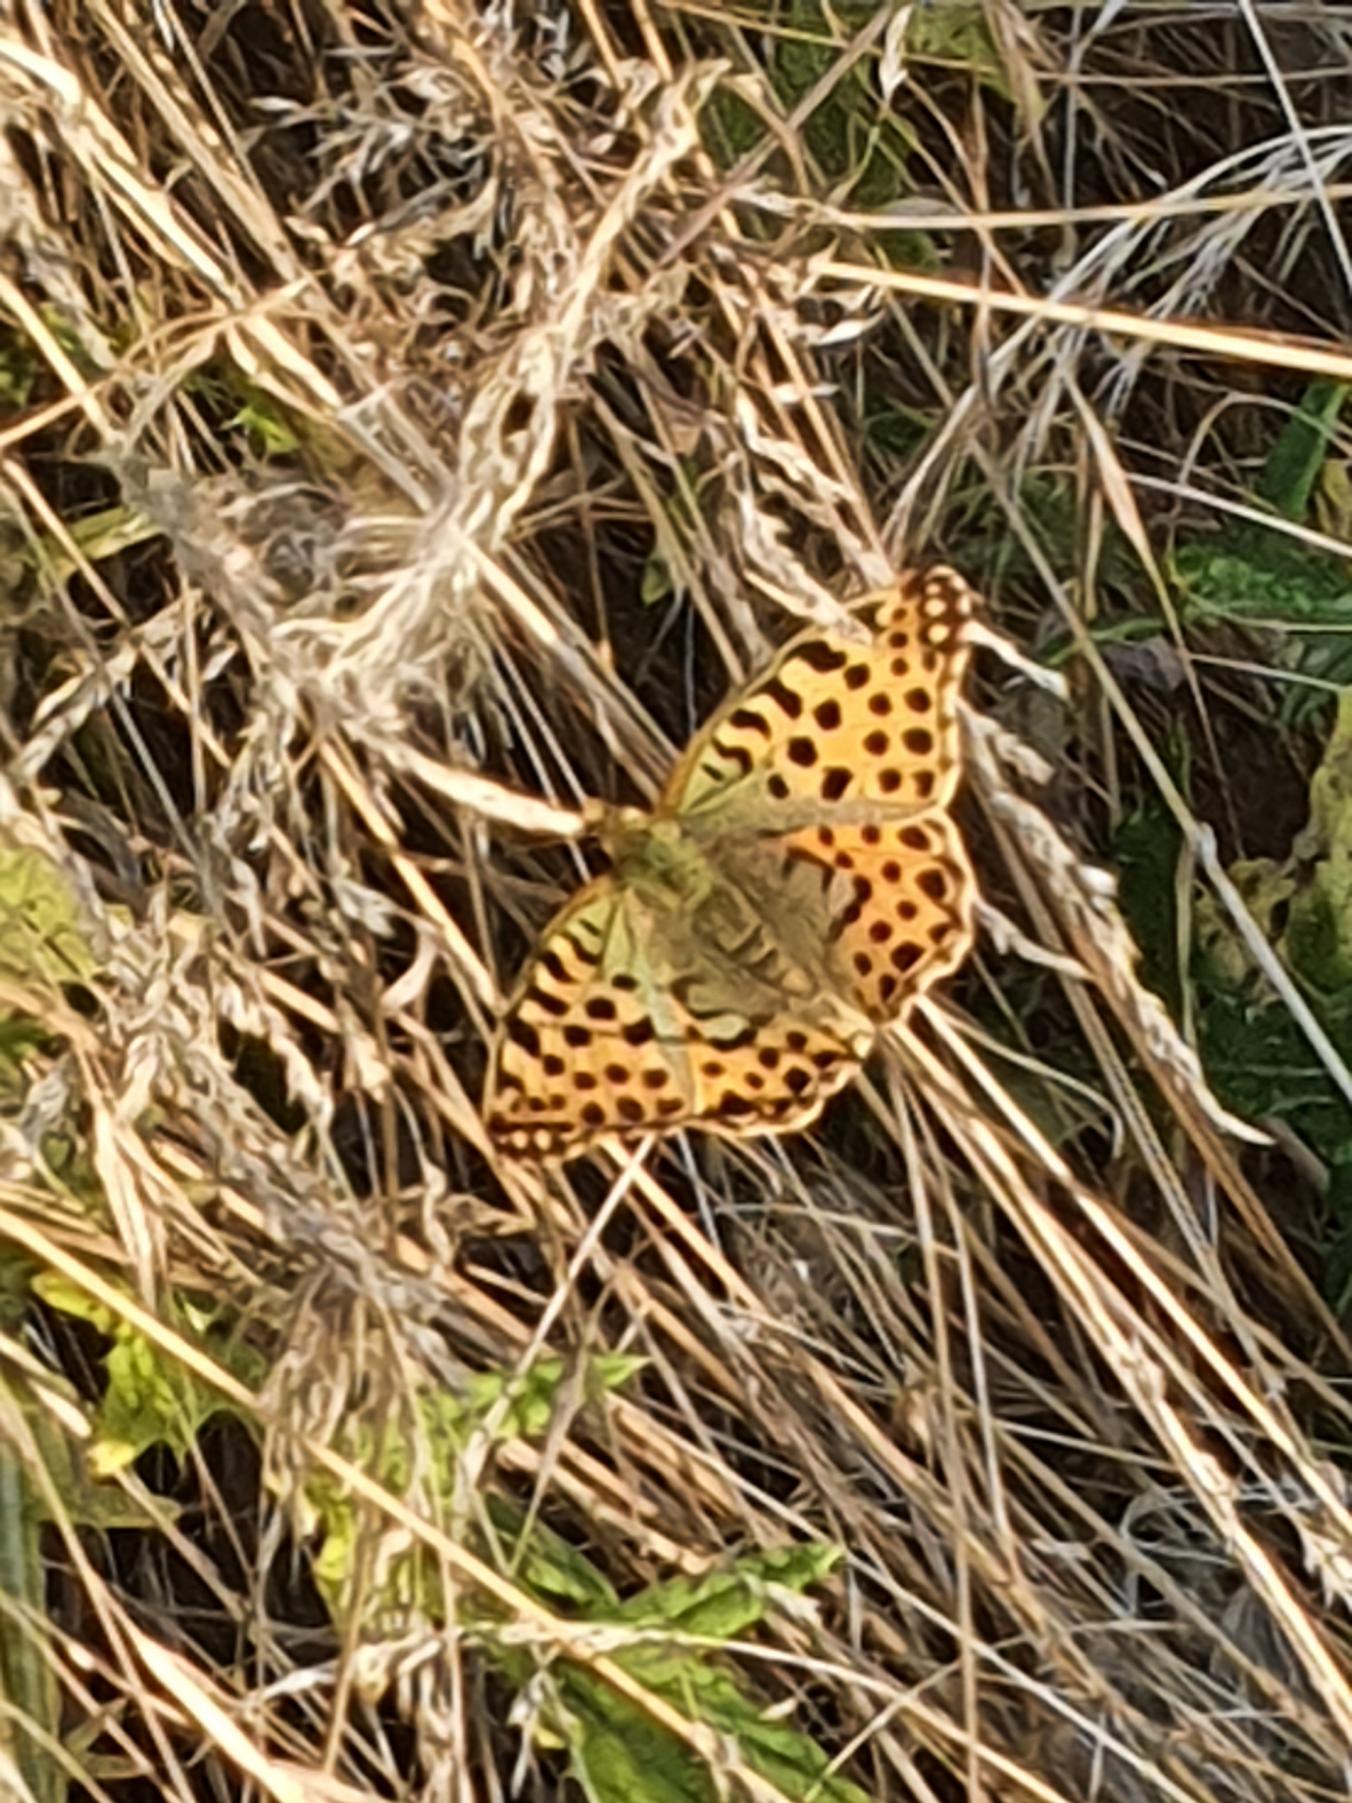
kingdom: Animalia
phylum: Arthropoda
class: Insecta
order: Lepidoptera
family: Nymphalidae
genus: Issoria
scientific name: Issoria lathonia
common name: Storplettet perlemorsommerfugl
